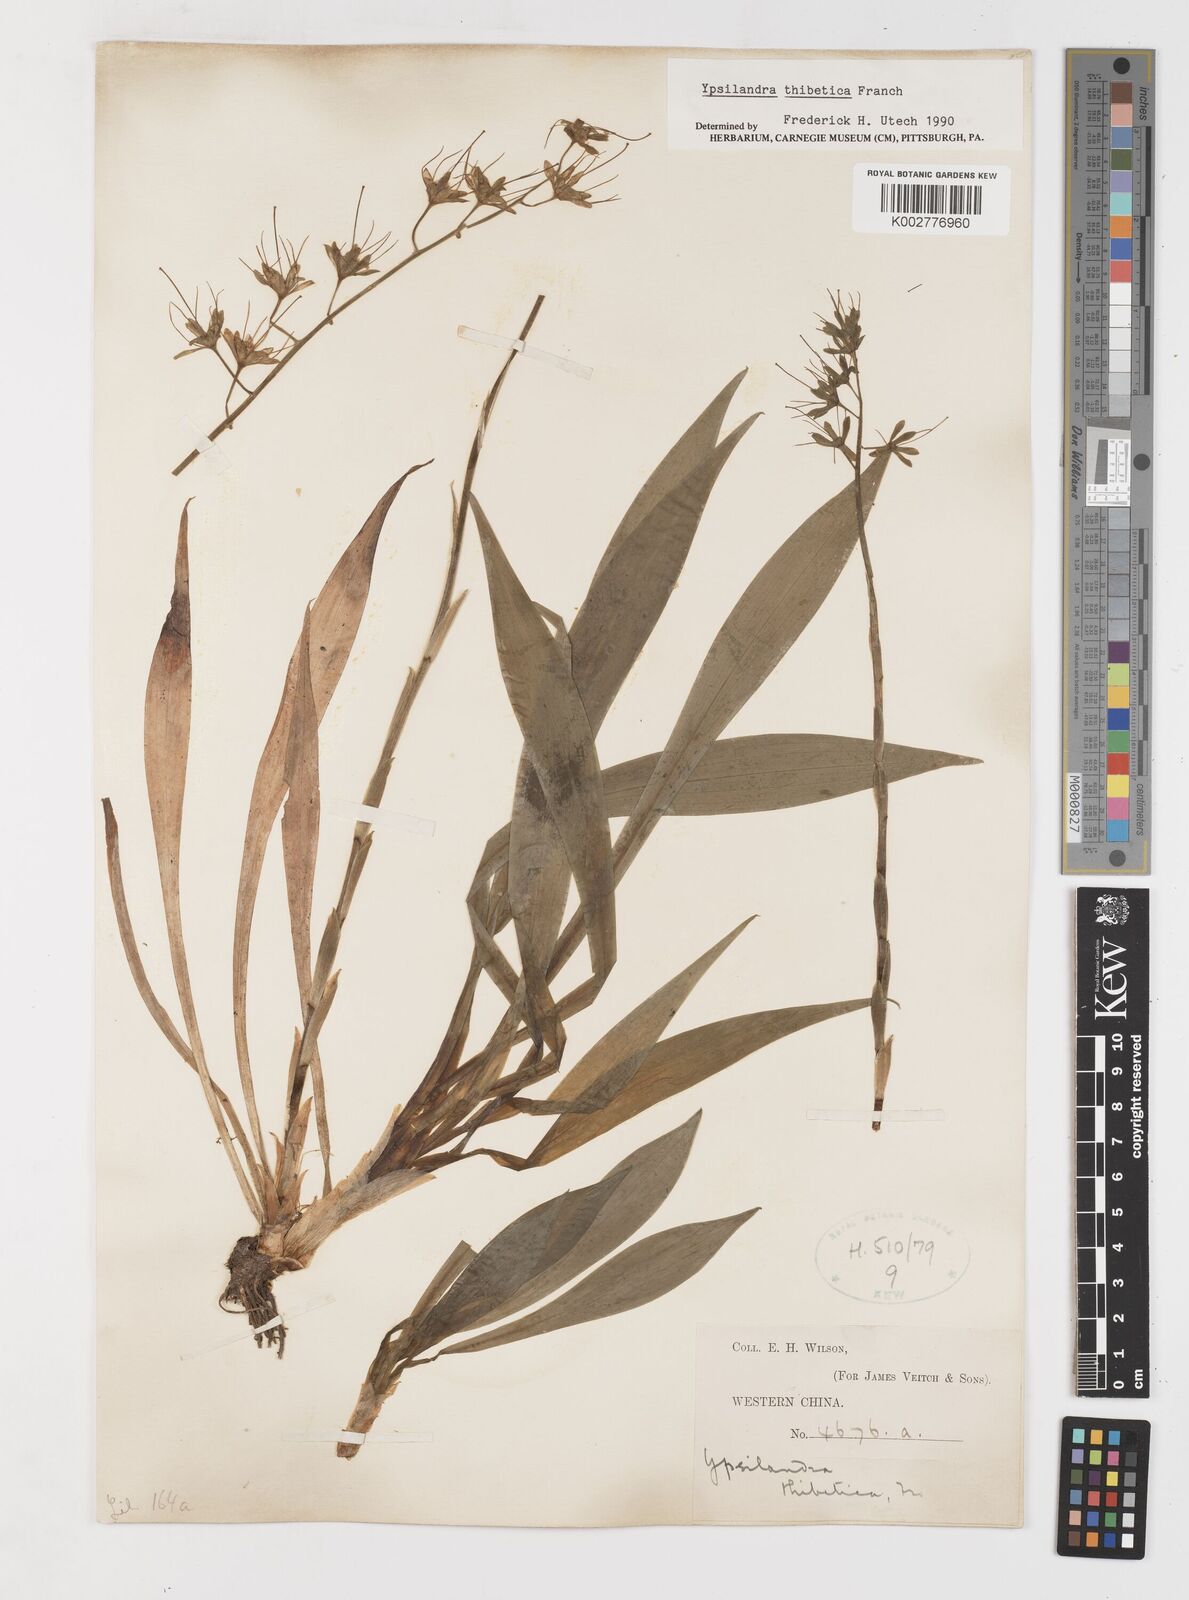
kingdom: Plantae
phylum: Tracheophyta
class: Liliopsida
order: Liliales
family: Melanthiaceae
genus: Helonias
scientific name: Helonias thibetica
